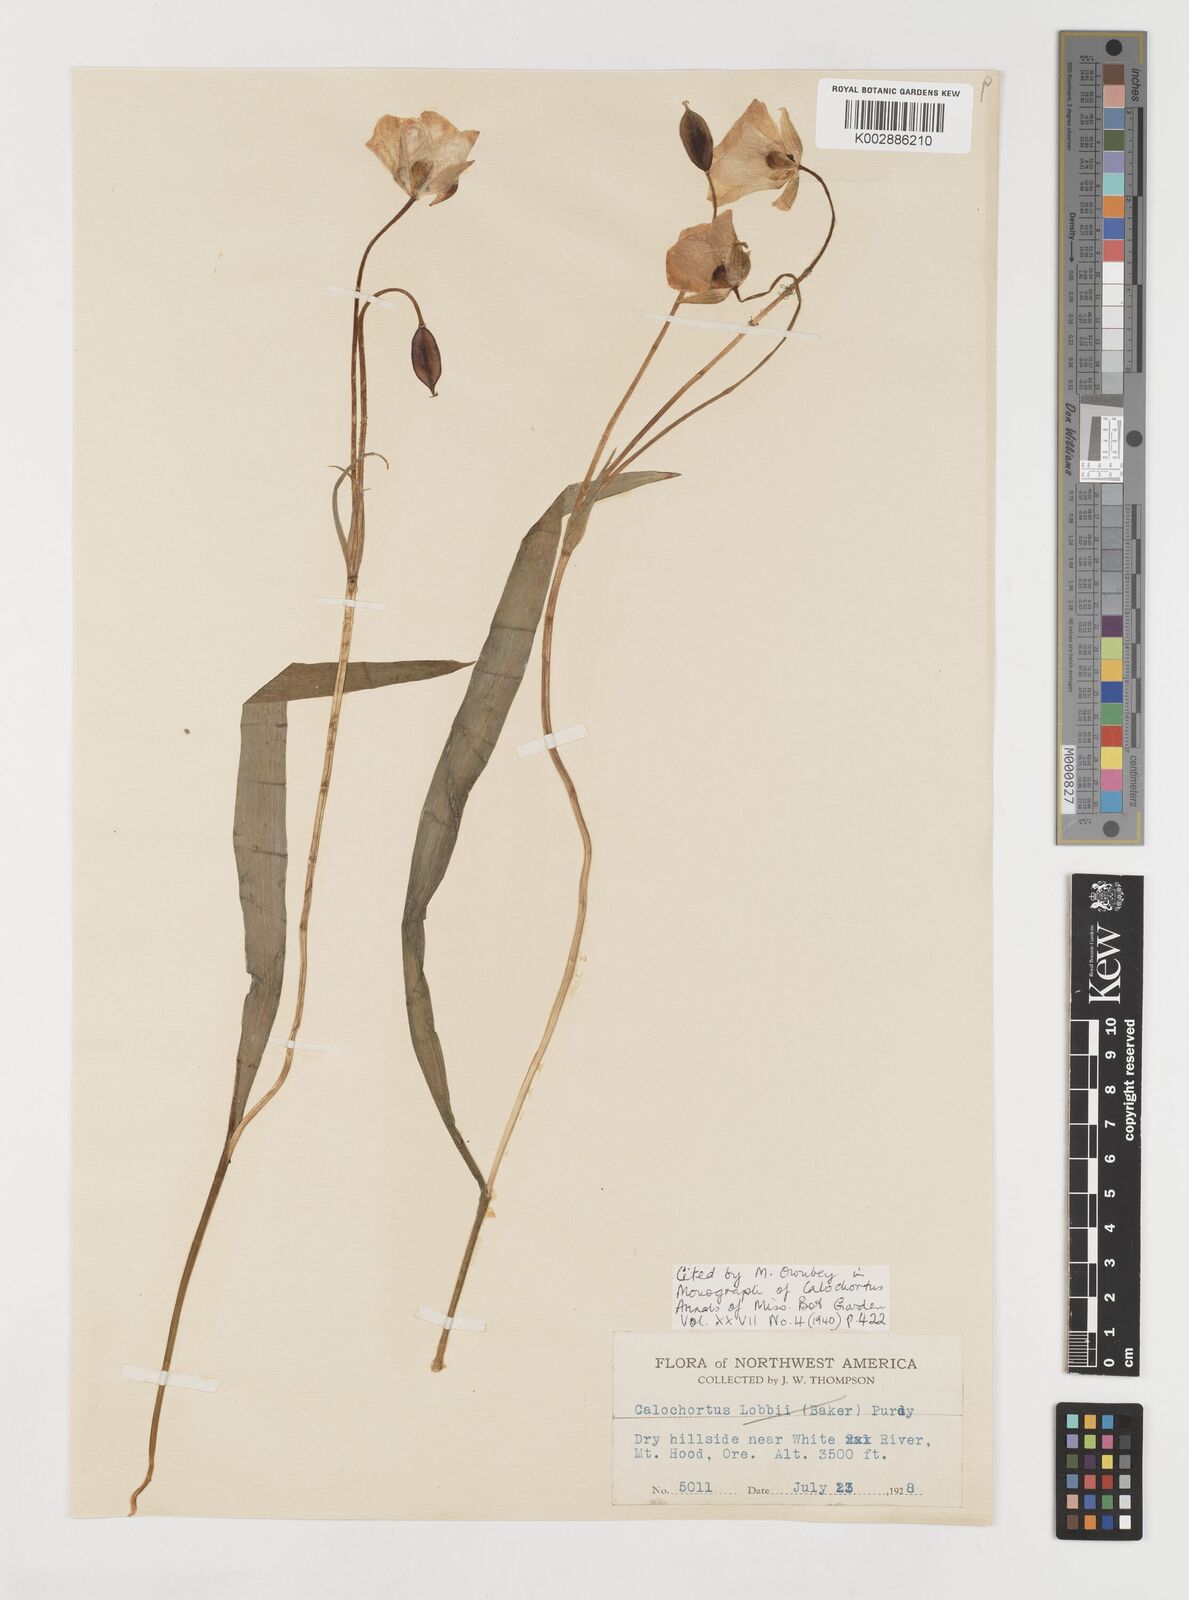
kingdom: Plantae
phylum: Tracheophyta
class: Liliopsida
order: Liliales
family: Liliaceae
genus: Calochortus
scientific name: Calochortus subalpinus
